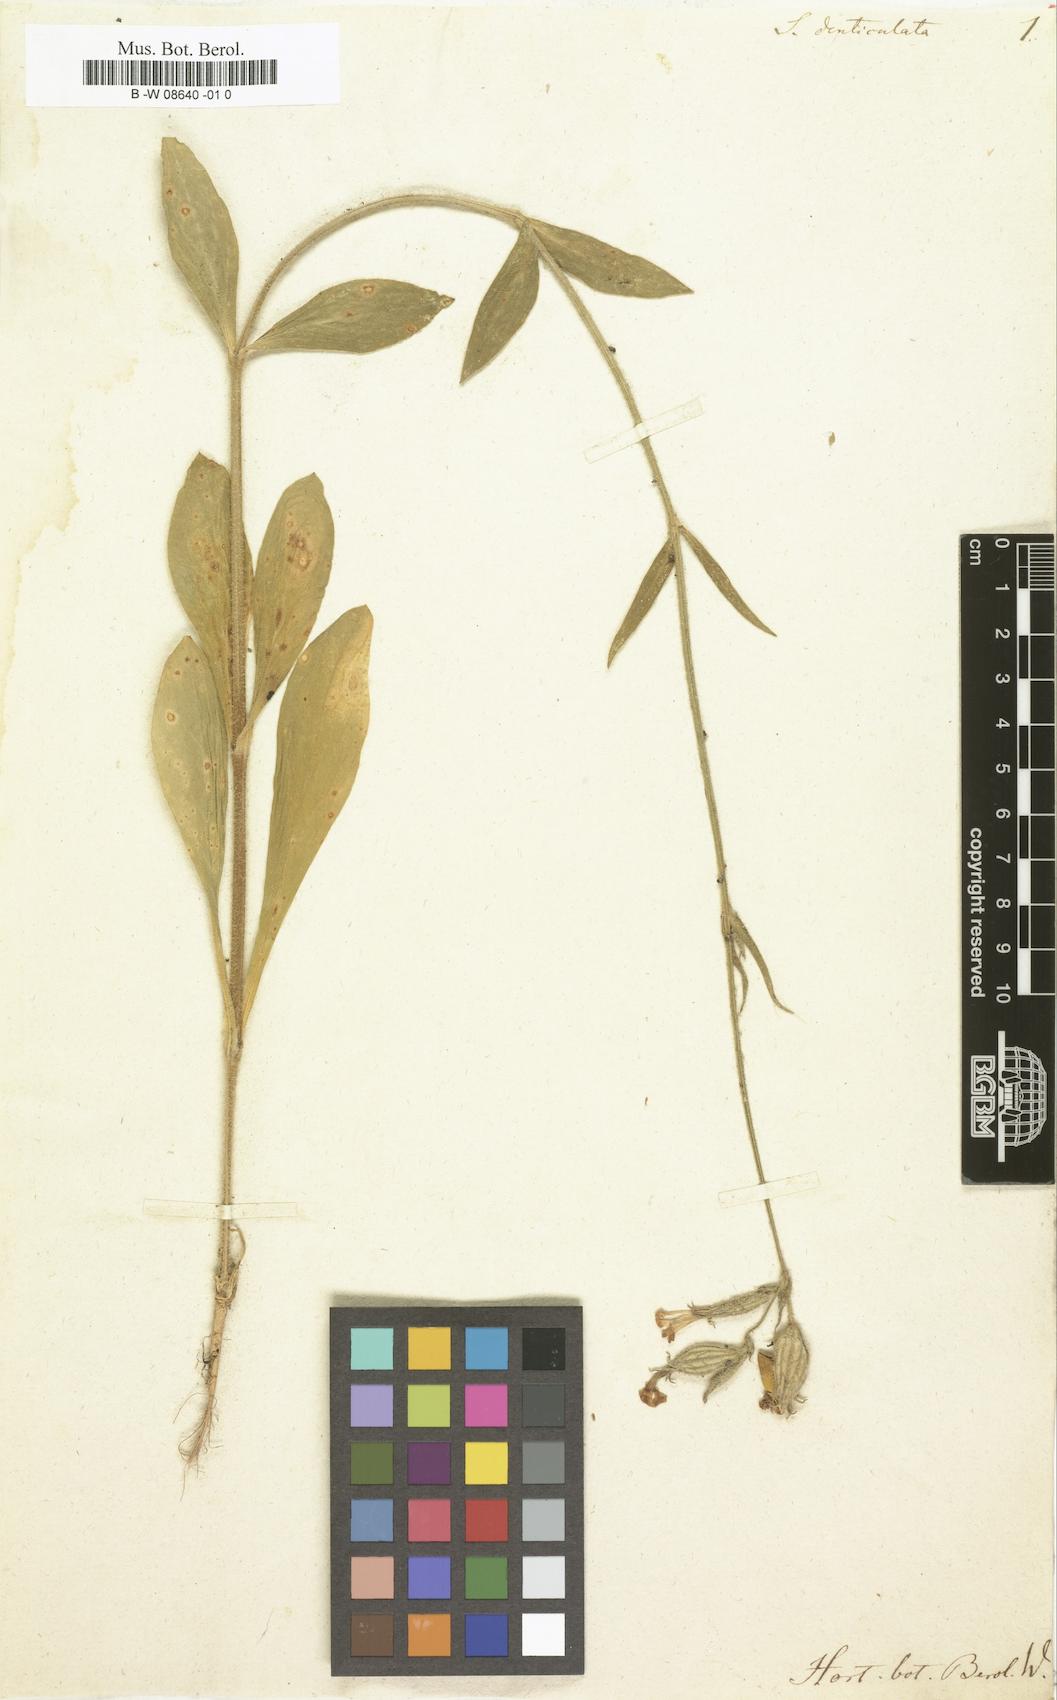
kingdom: Plantae
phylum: Tracheophyta
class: Magnoliopsida
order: Caryophyllales
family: Caryophyllaceae
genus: Silene
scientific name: Silene
